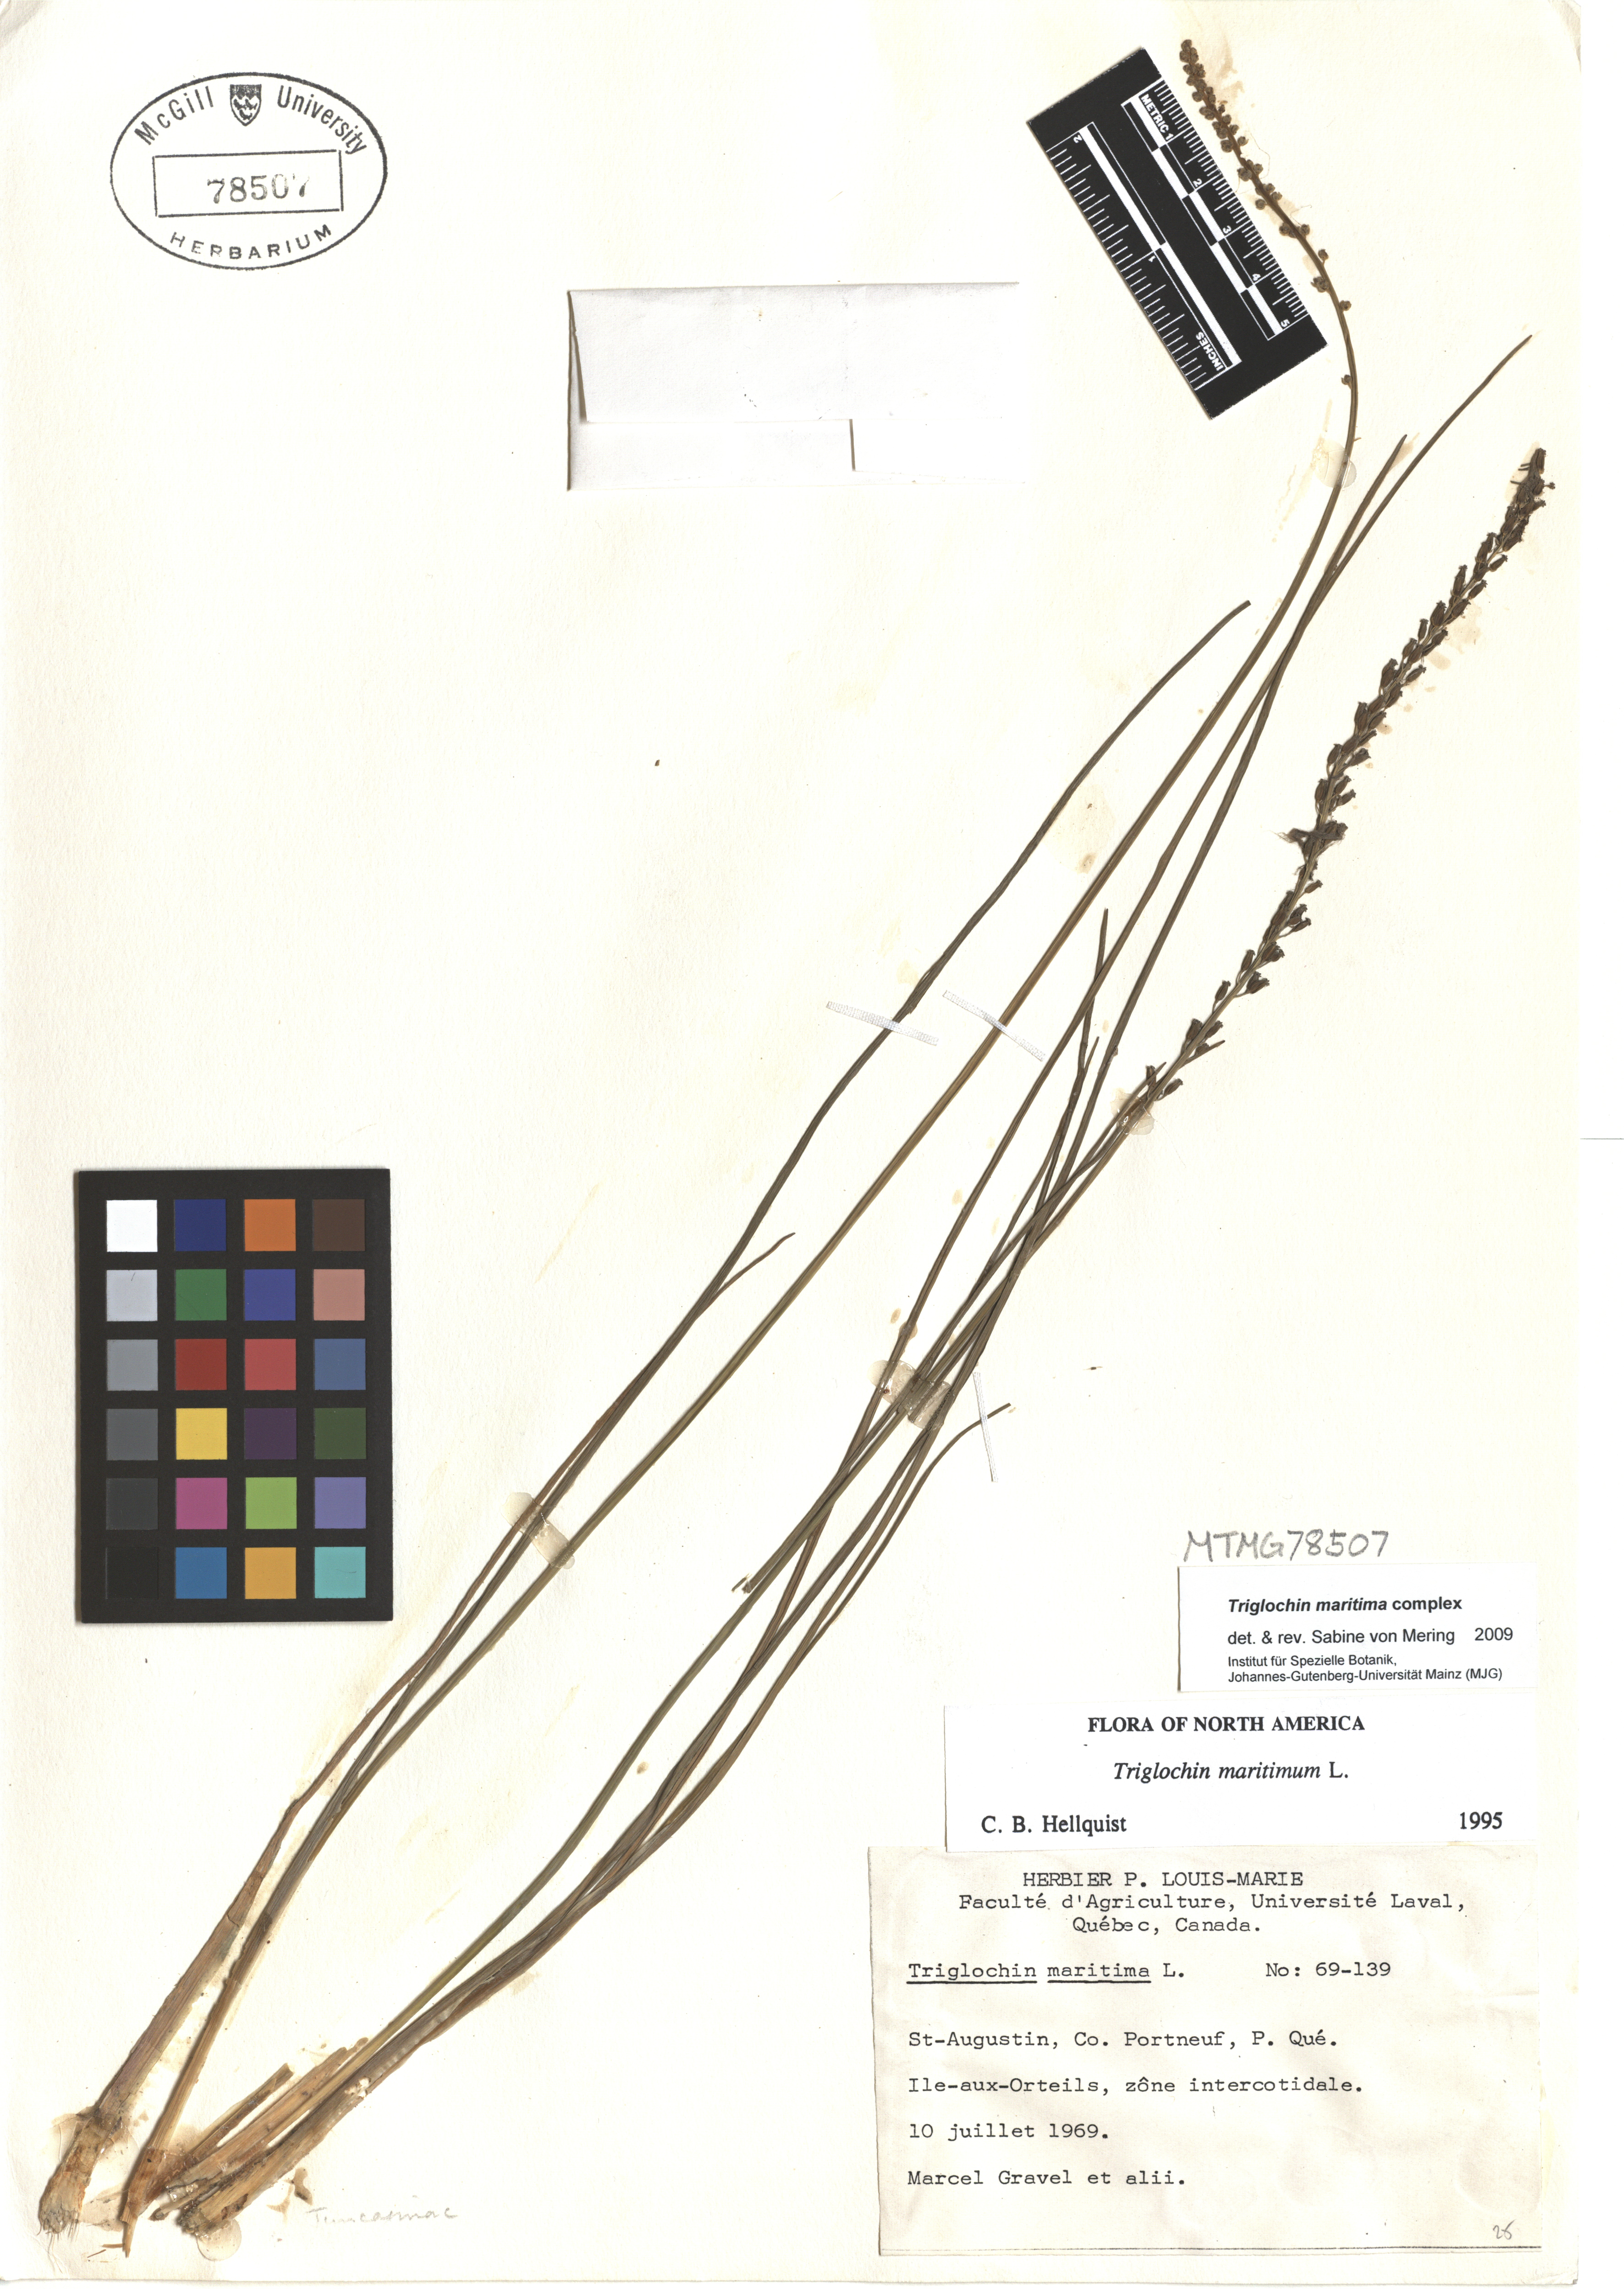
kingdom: Plantae
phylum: Tracheophyta
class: Liliopsida
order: Alismatales
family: Juncaginaceae
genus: Triglochin
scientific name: Triglochin maritima
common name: Sea arrowgrass
